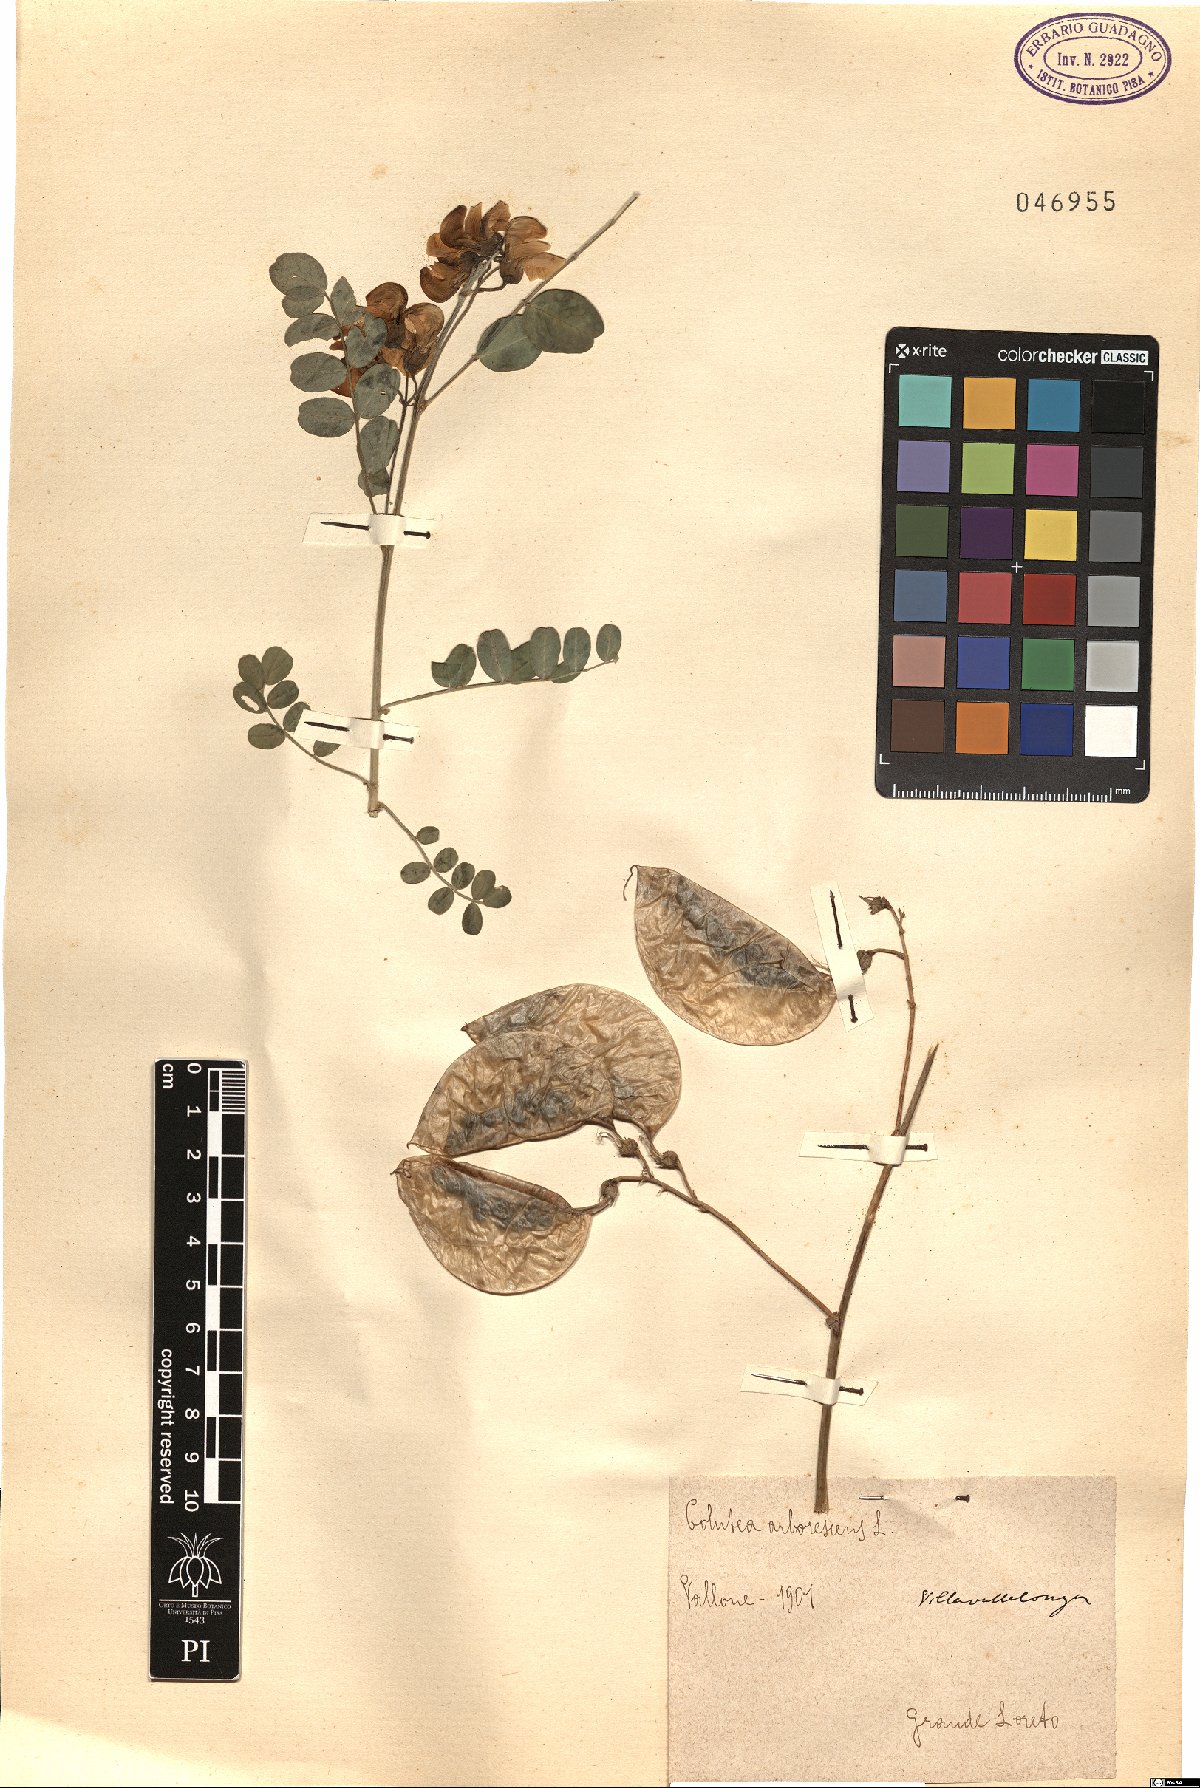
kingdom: Plantae
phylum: Tracheophyta
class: Magnoliopsida
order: Fabales
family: Fabaceae
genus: Colutea
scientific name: Colutea arborescens
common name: Bladder-senna
